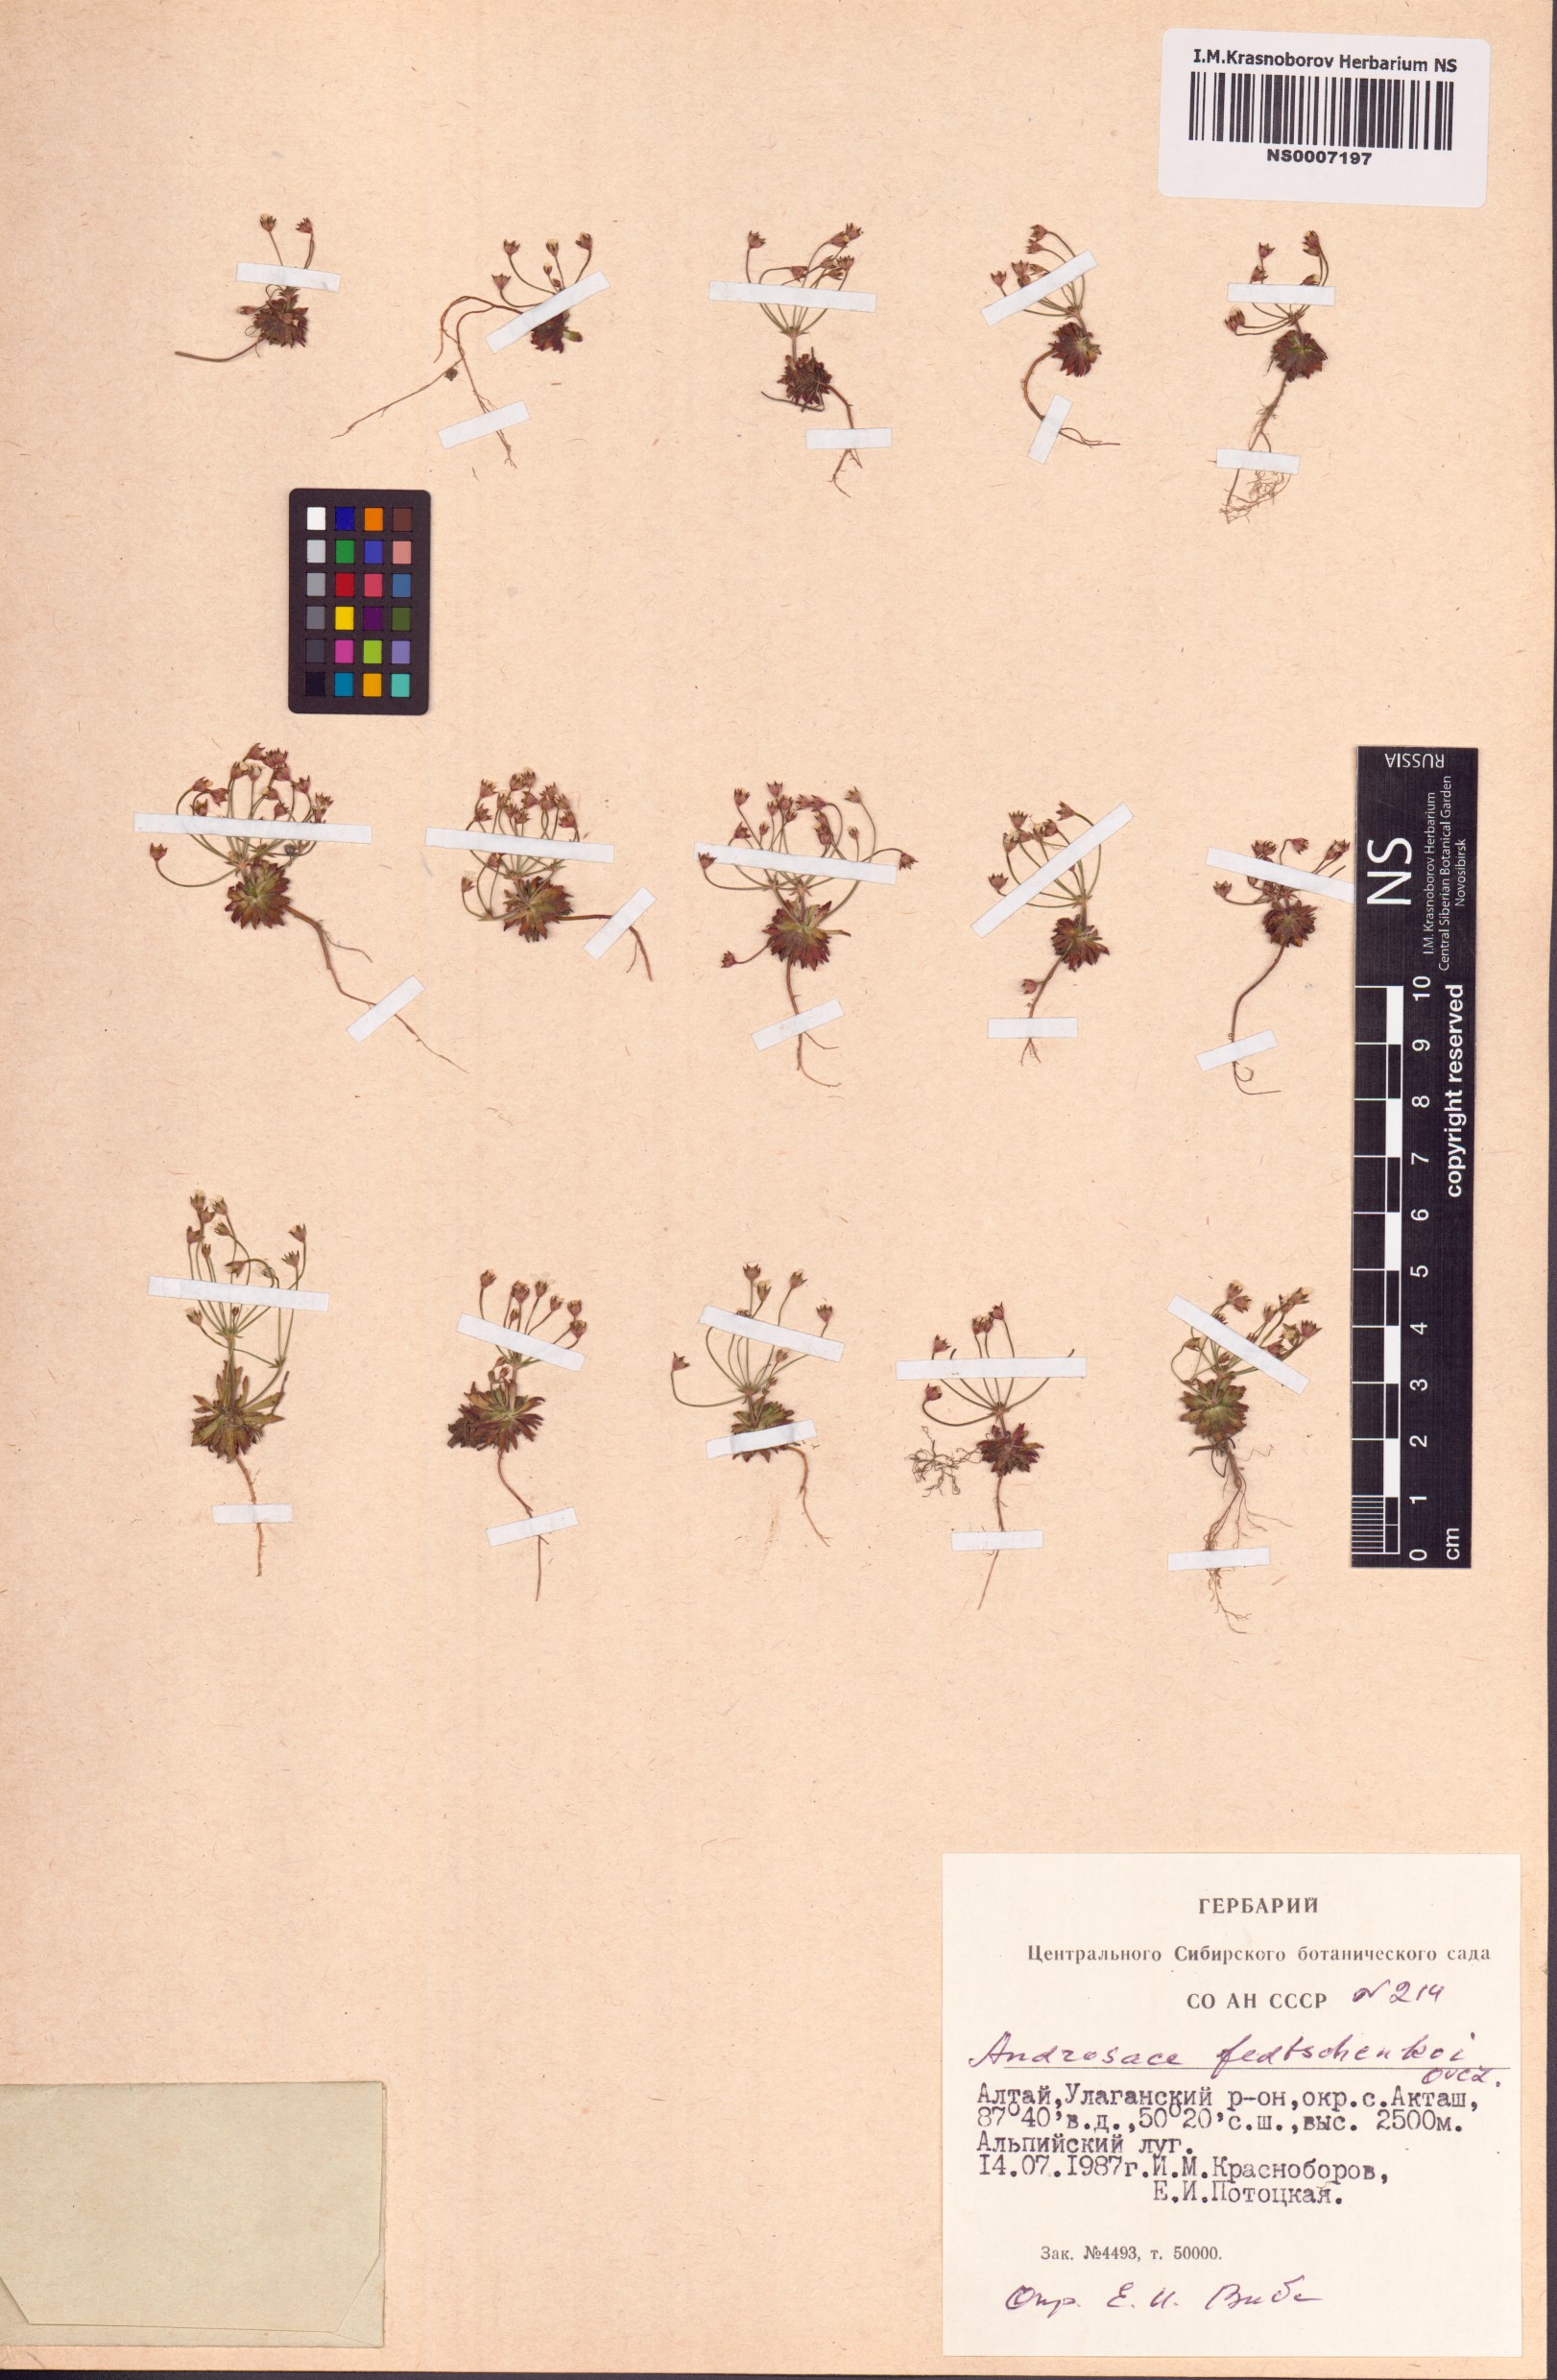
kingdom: Plantae
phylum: Tracheophyta
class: Magnoliopsida
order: Ericales
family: Primulaceae
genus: Androsace
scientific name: Androsace fedtschenkoi
